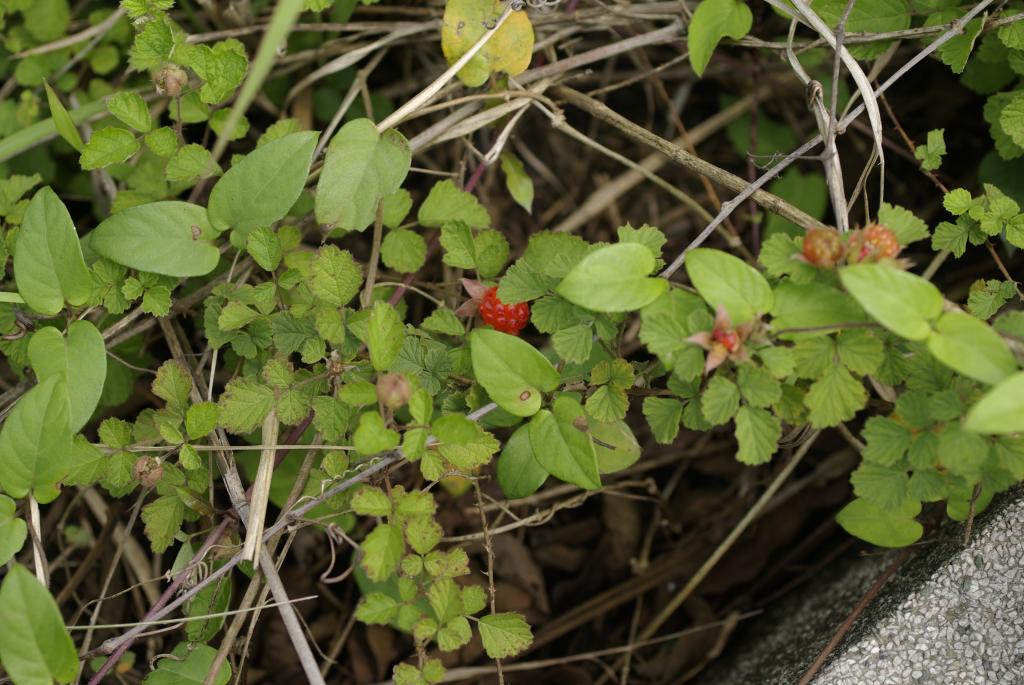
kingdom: Plantae
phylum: Tracheophyta
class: Magnoliopsida
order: Rosales
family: Rosaceae
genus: Rubus
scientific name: Rubus parvifolius
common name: Threeleaf blackberry
